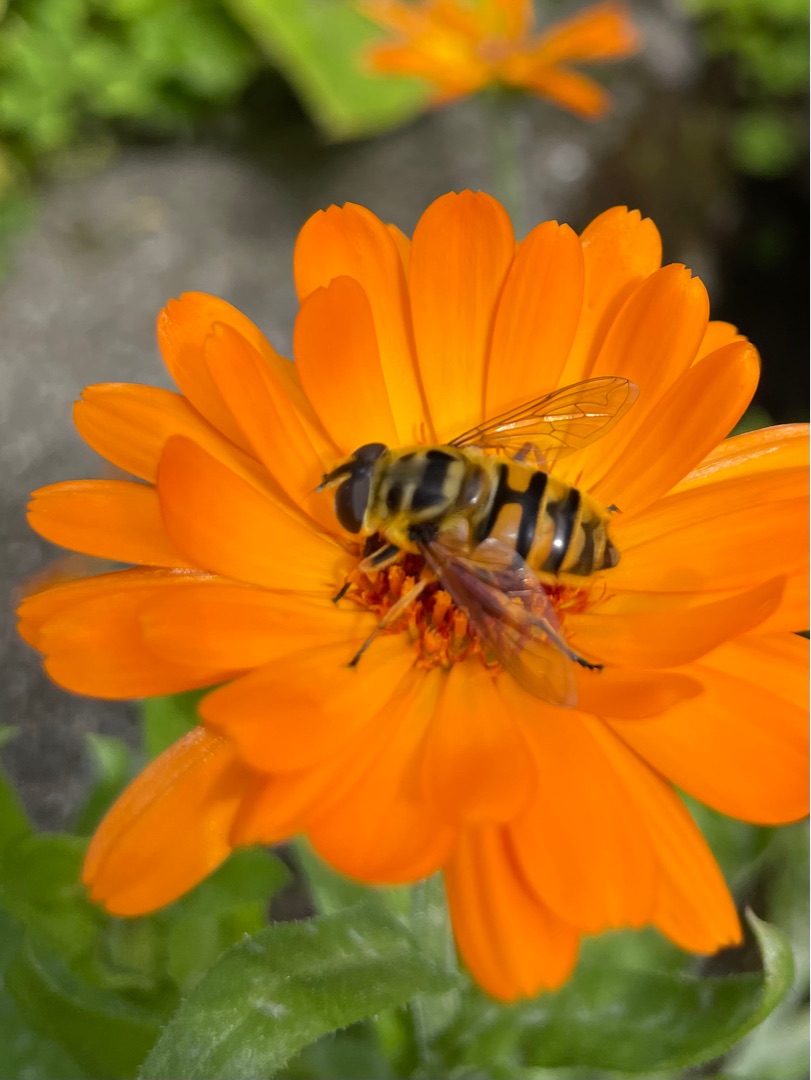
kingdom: Animalia
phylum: Arthropoda
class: Insecta
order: Diptera
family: Syrphidae
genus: Myathropa
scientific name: Myathropa florea
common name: Dødningehoved-svirreflue
